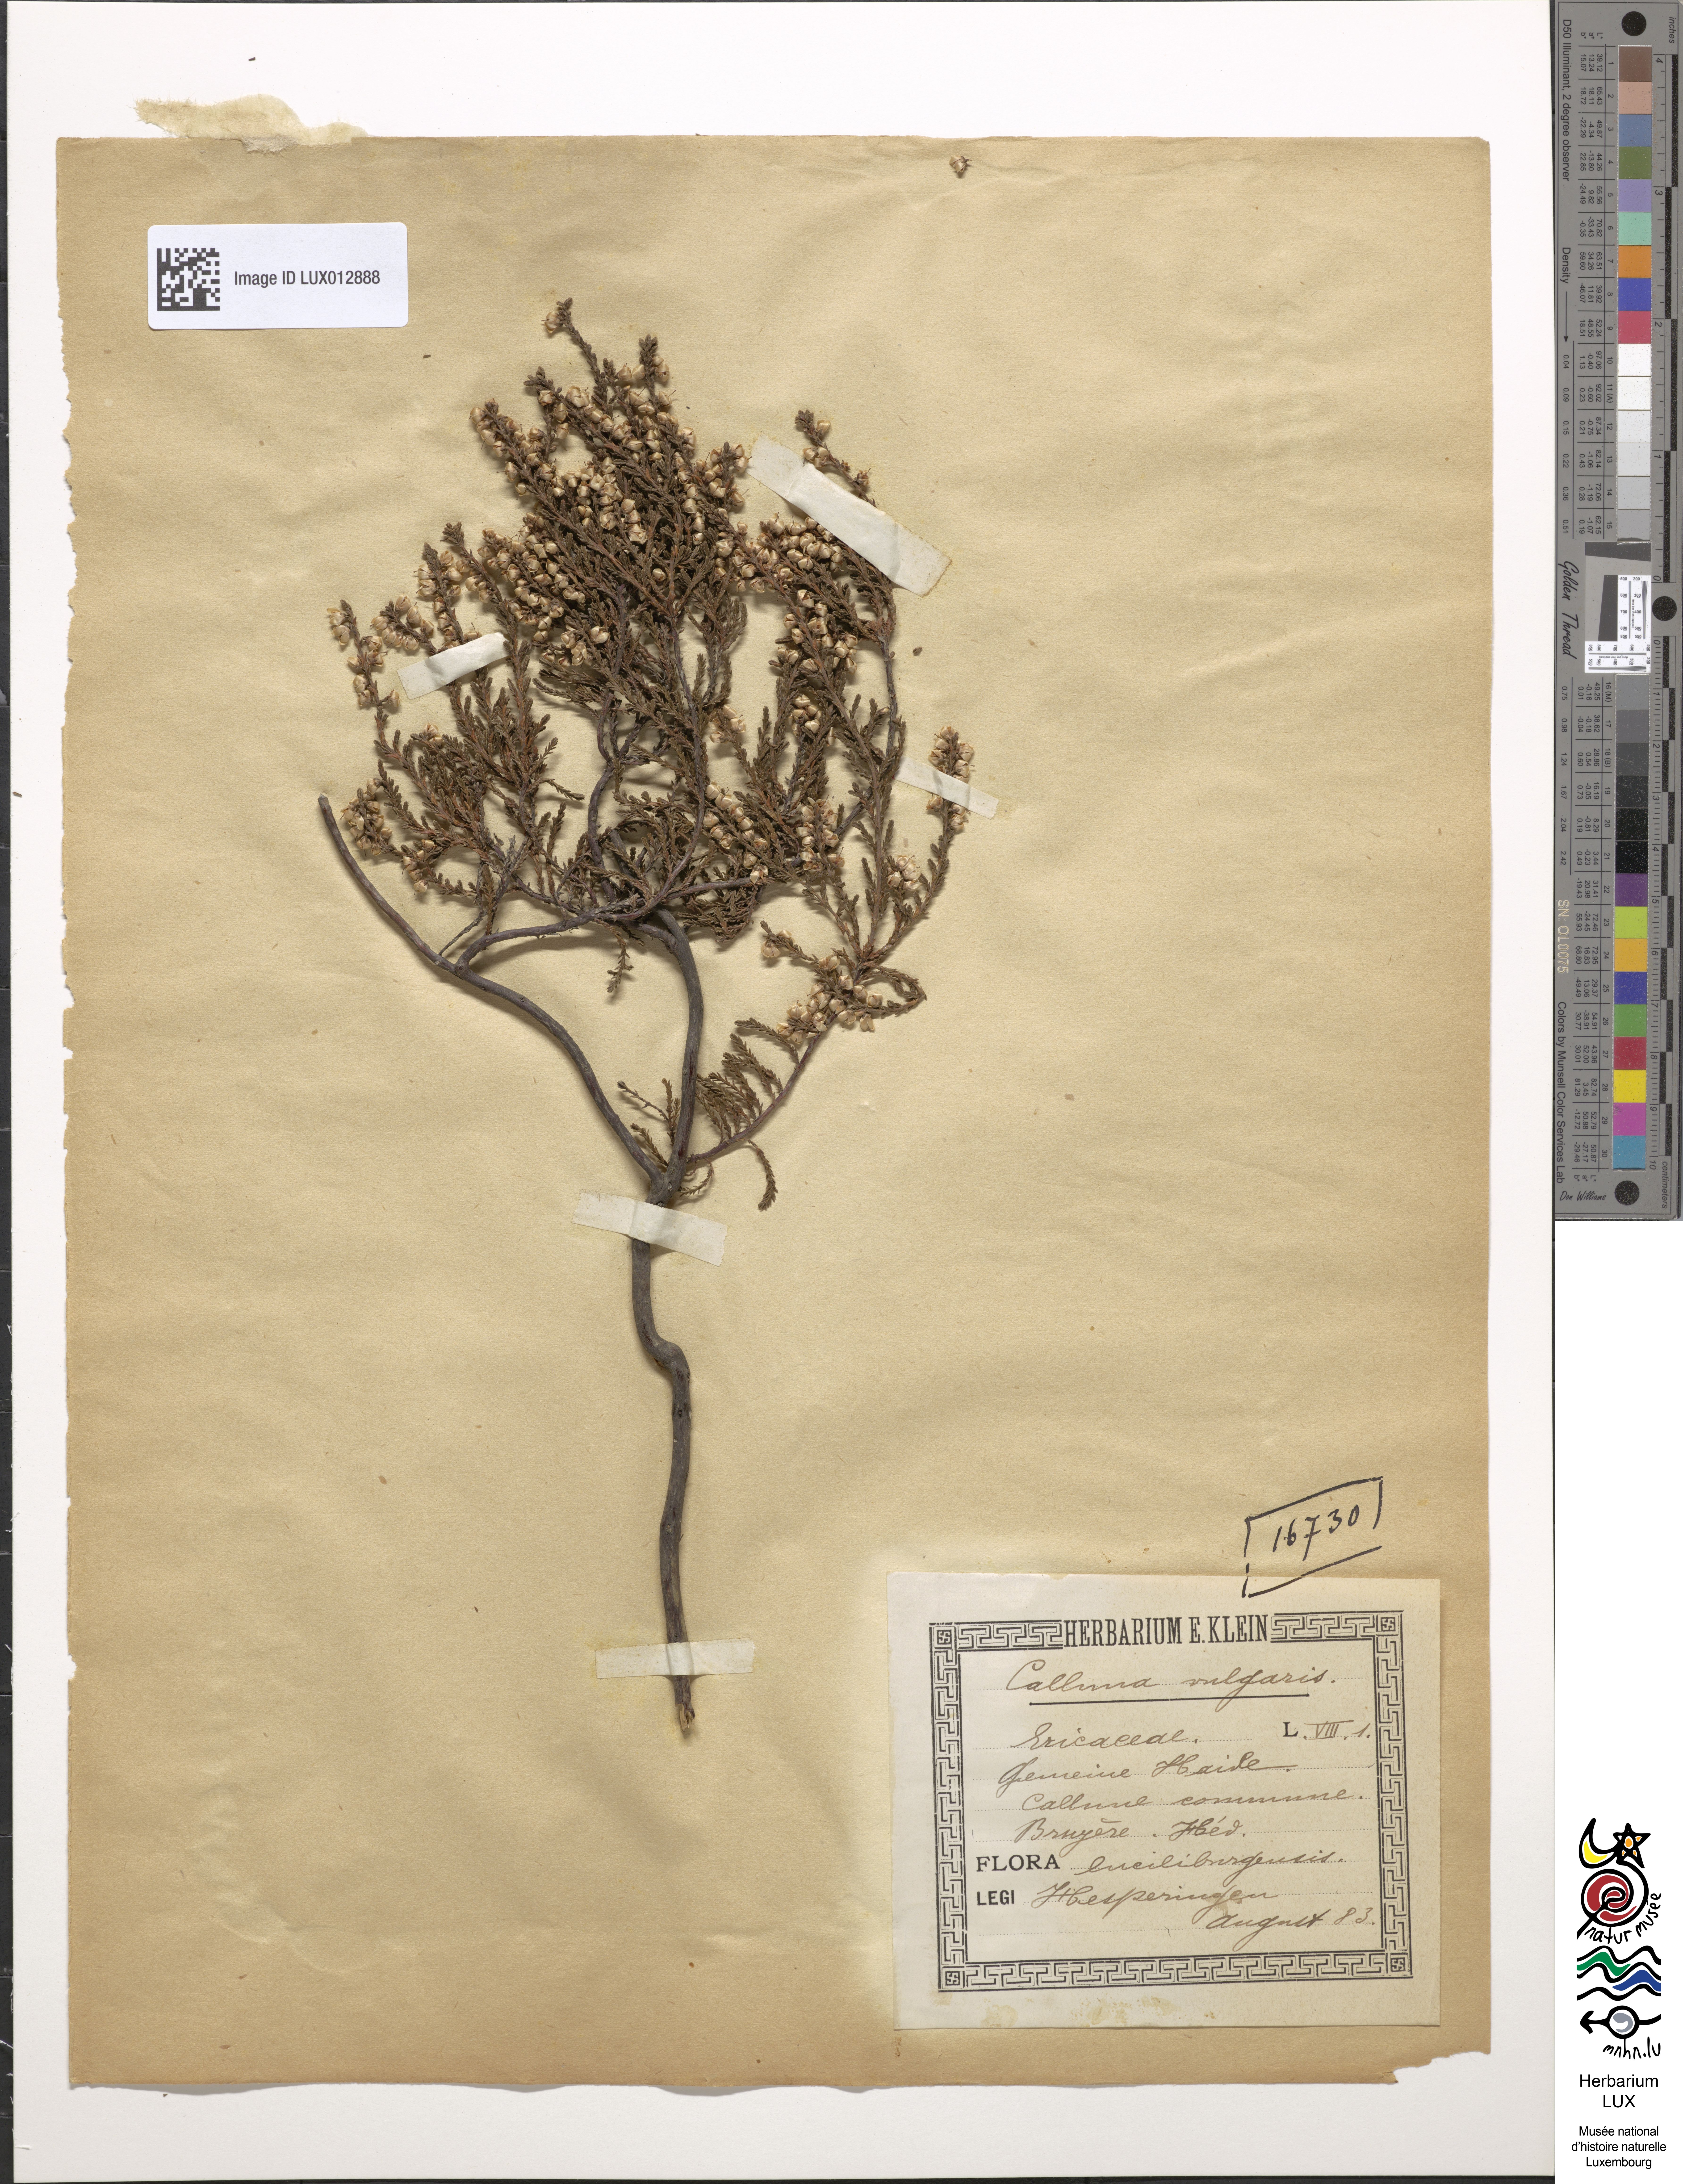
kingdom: Plantae
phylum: Tracheophyta
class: Magnoliopsida
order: Ericales
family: Ericaceae
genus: Calluna
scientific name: Calluna vulgaris
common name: Heather
